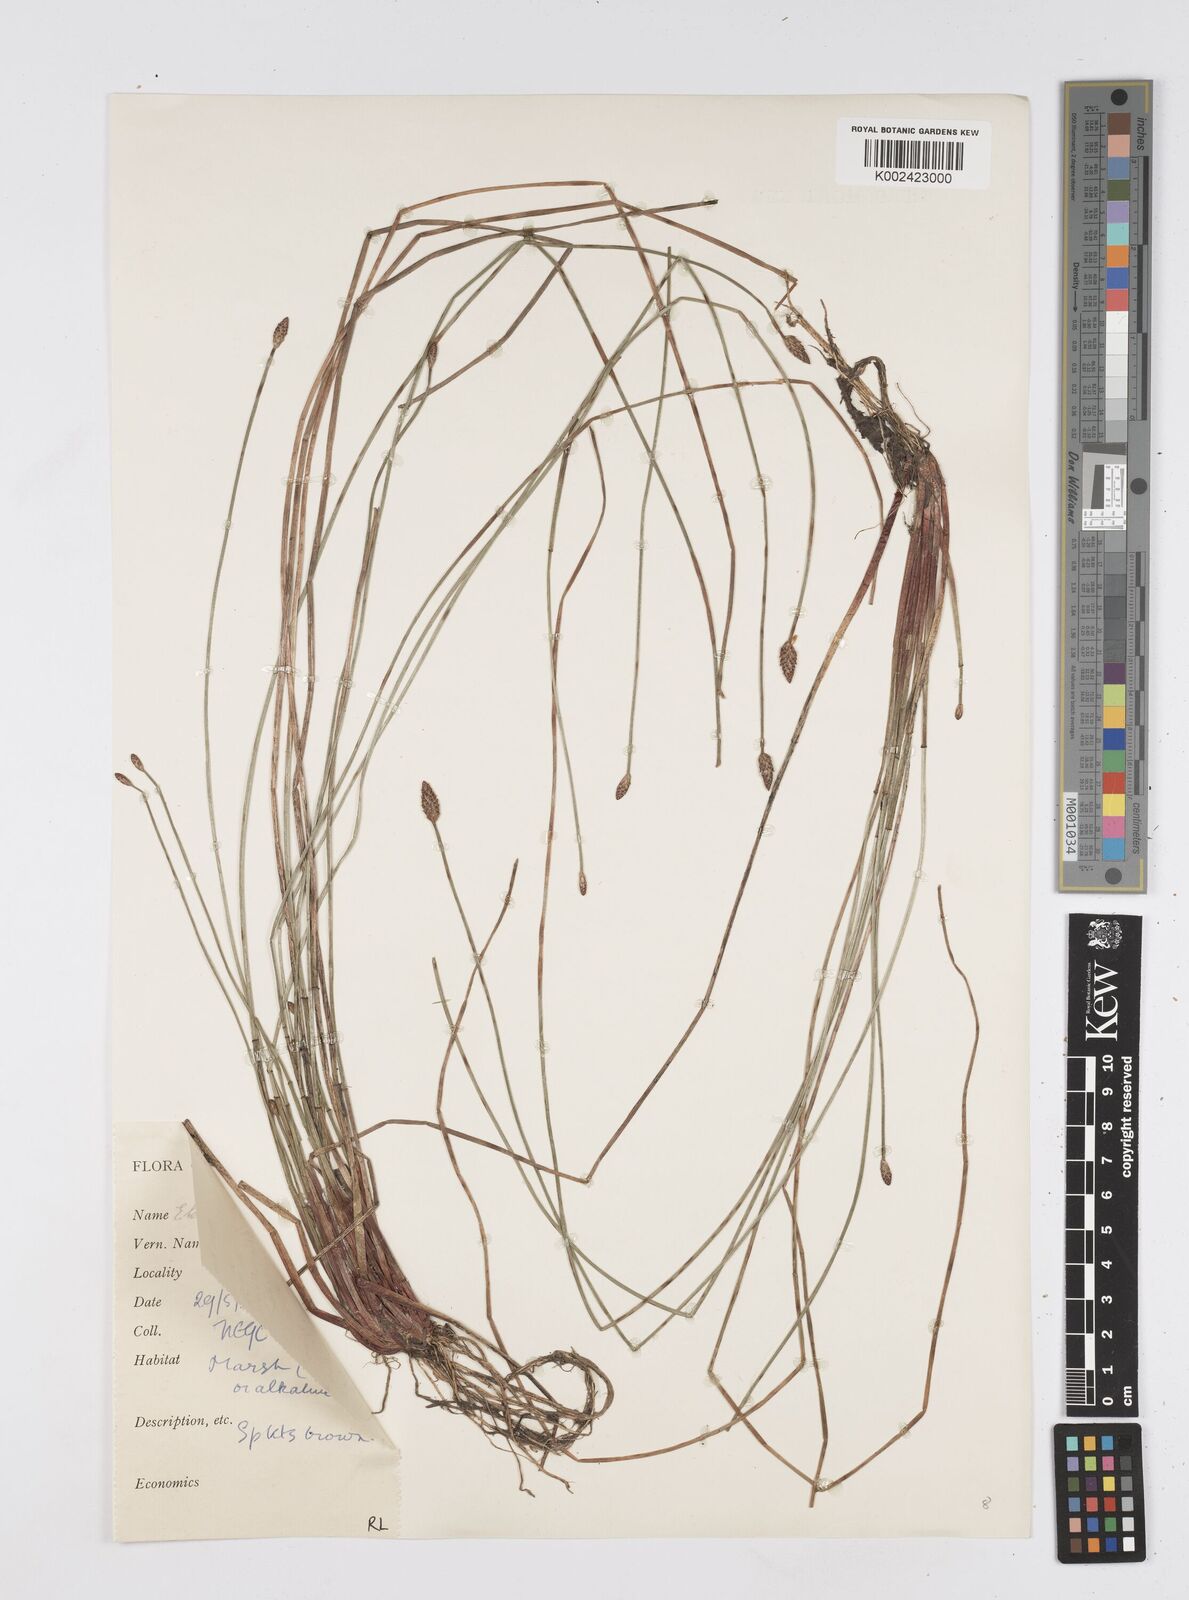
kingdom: Plantae
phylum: Tracheophyta
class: Liliopsida
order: Poales
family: Cyperaceae
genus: Eleocharis
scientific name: Eleocharis tetraquetra
